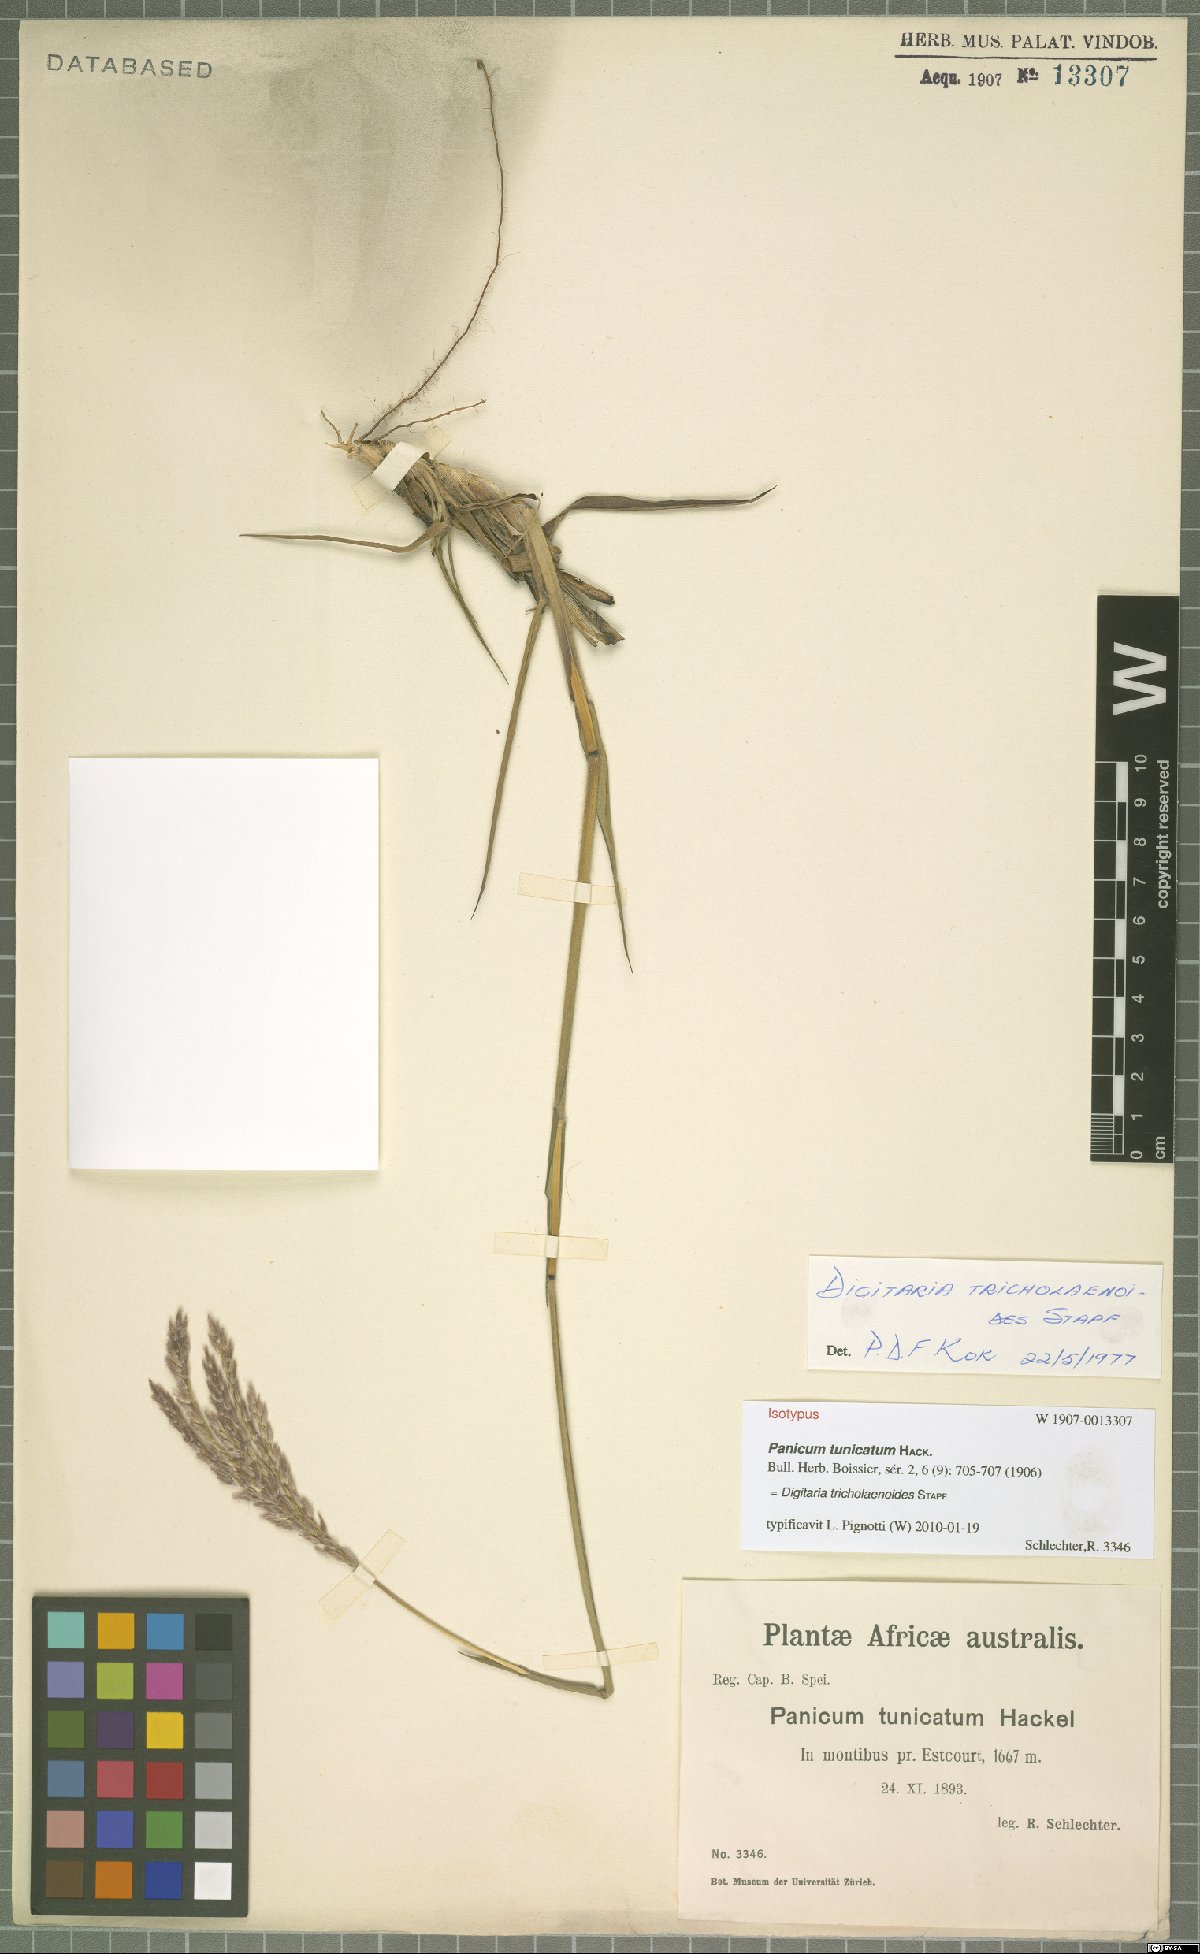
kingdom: Plantae
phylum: Tracheophyta
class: Liliopsida
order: Poales
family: Poaceae
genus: Digitaria
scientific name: Digitaria tricholaenoides
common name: Purple finger grass
